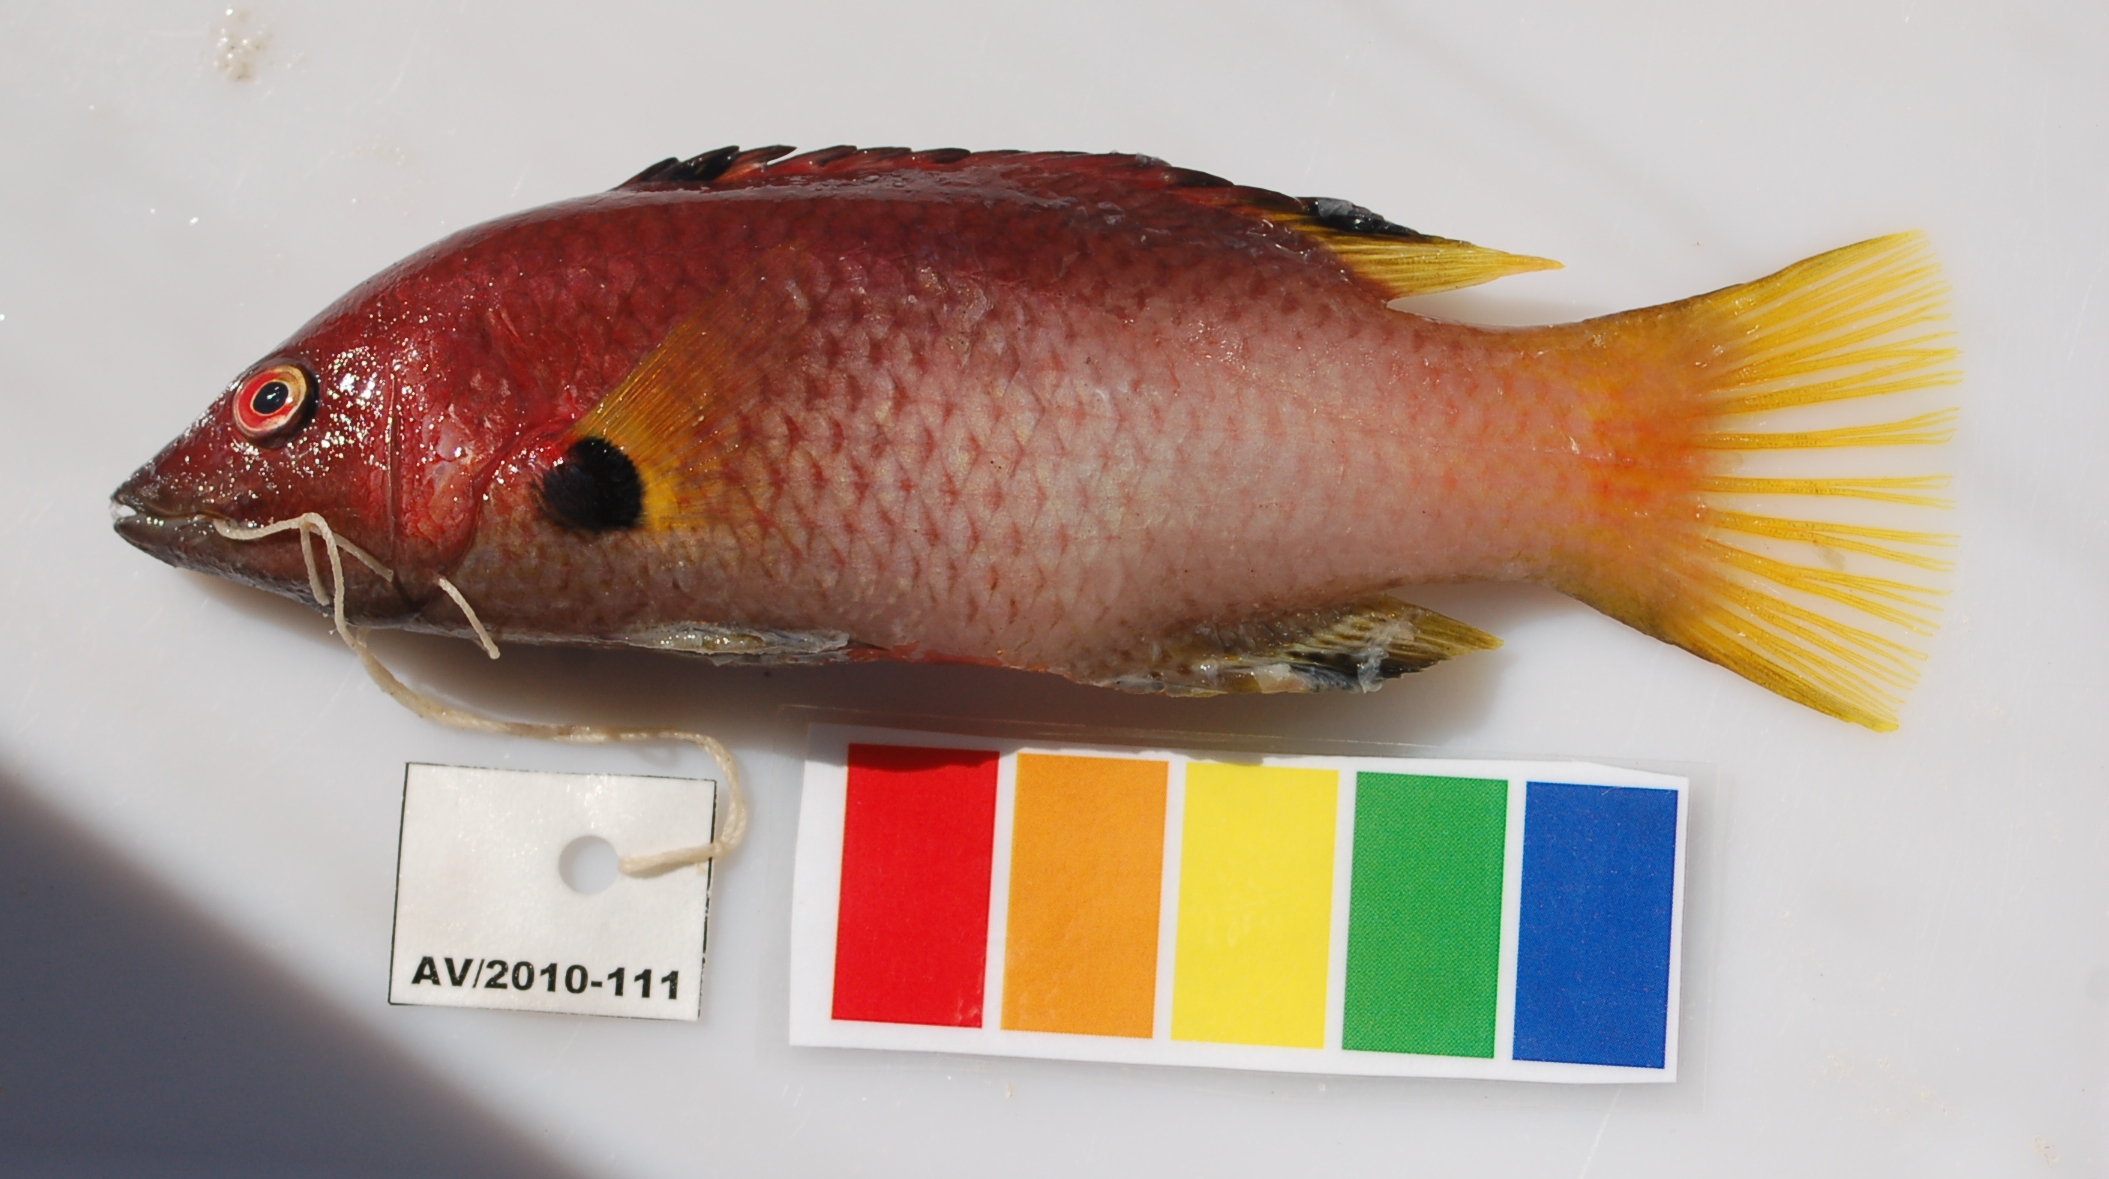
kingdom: Animalia
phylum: Chordata
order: Perciformes
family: Labridae
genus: Bodianus
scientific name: Bodianus axillaris
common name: Axilspot hogfish
